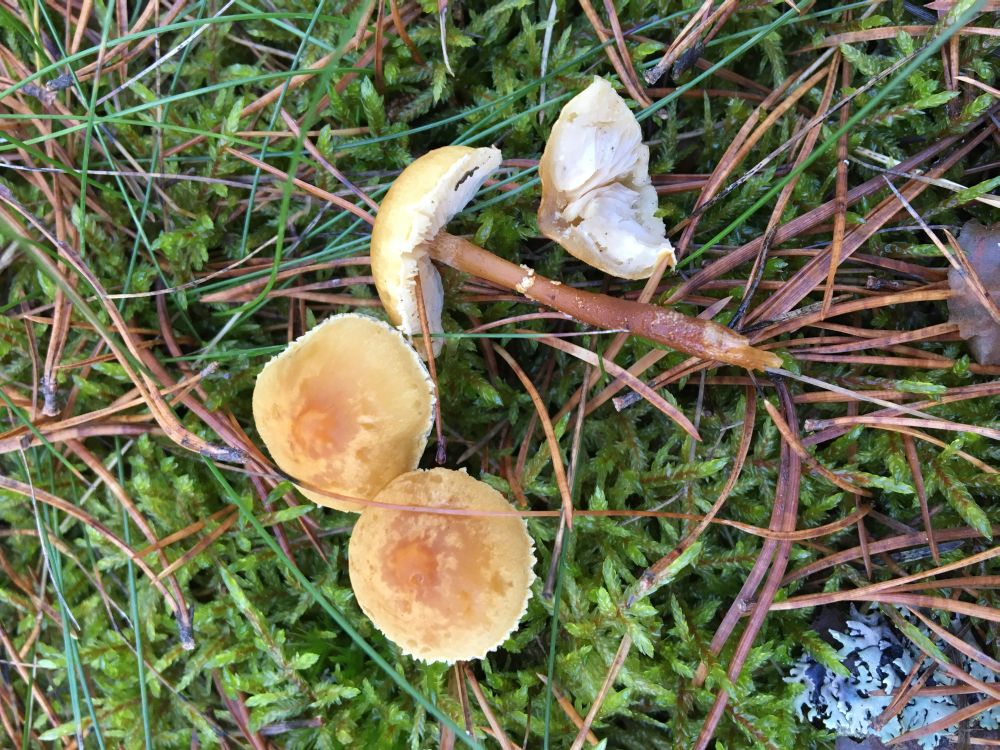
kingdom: Fungi
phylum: Basidiomycota
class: Agaricomycetes
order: Agaricales
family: Tricholomataceae
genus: Cystoderma
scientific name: Cystoderma amianthinum
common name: Earthy powdercap
